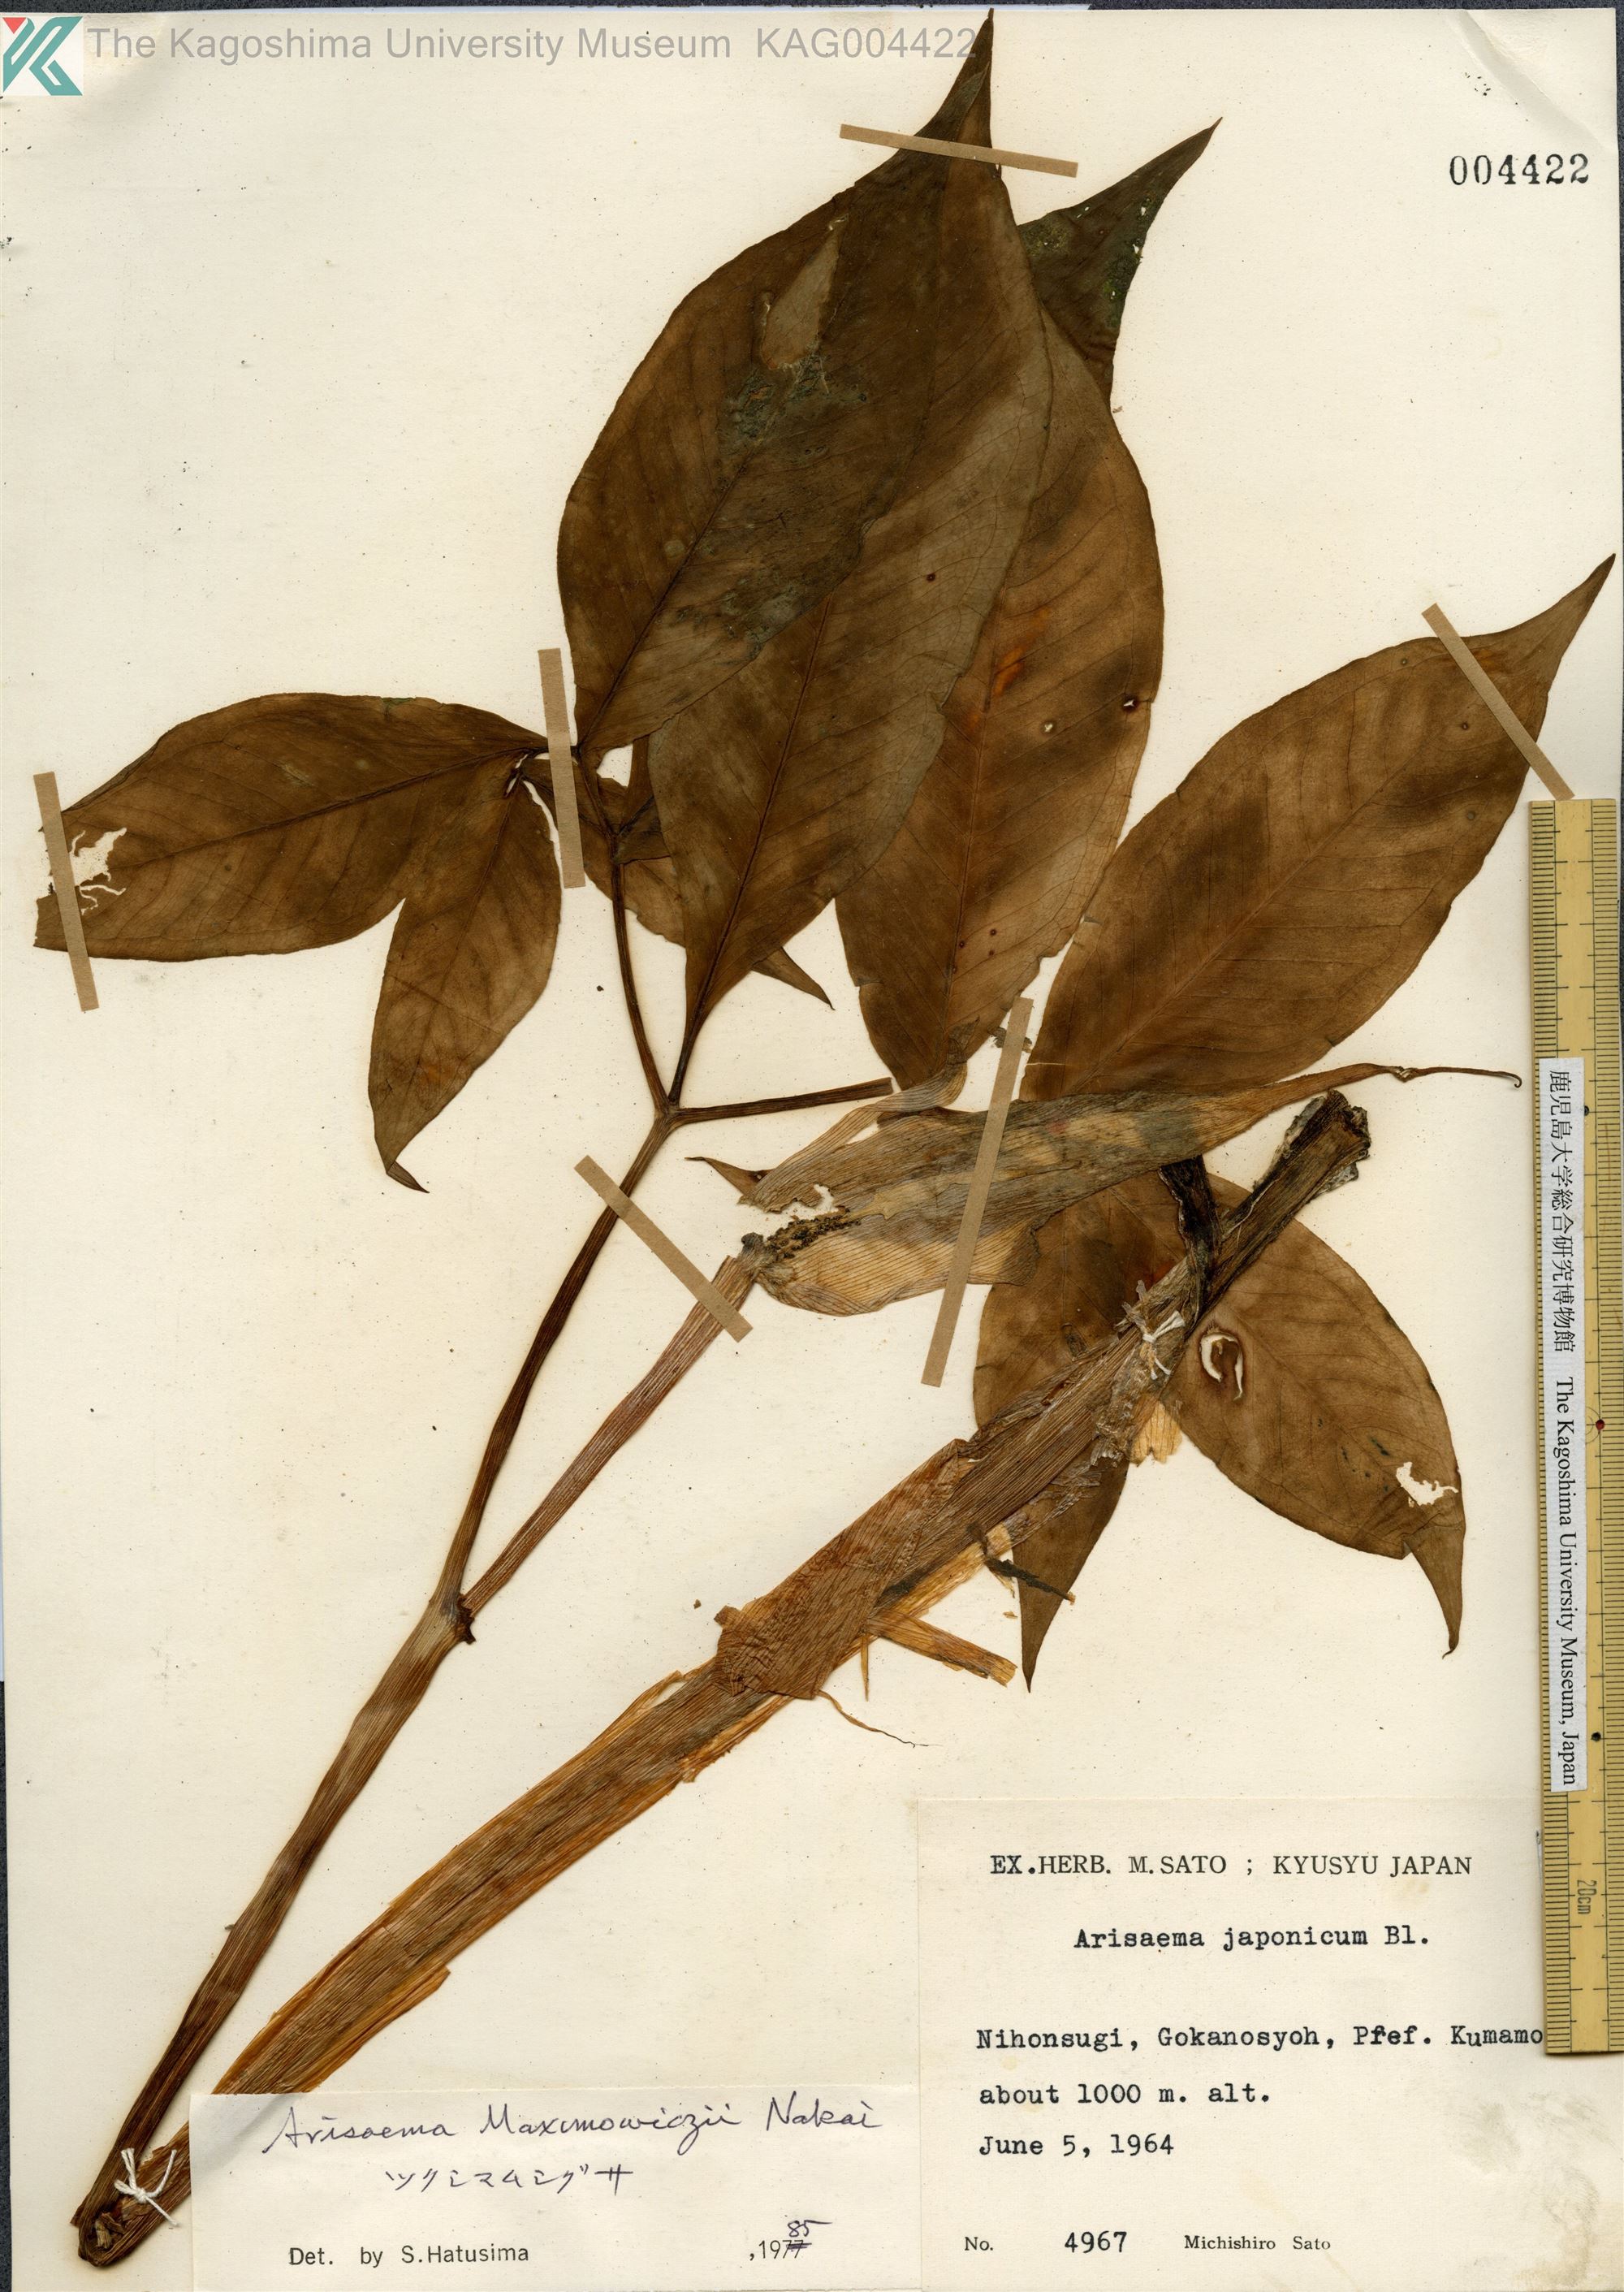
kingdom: Plantae
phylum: Tracheophyta
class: Liliopsida
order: Alismatales
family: Araceae
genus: Arisaema
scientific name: Arisaema maximowiczii
